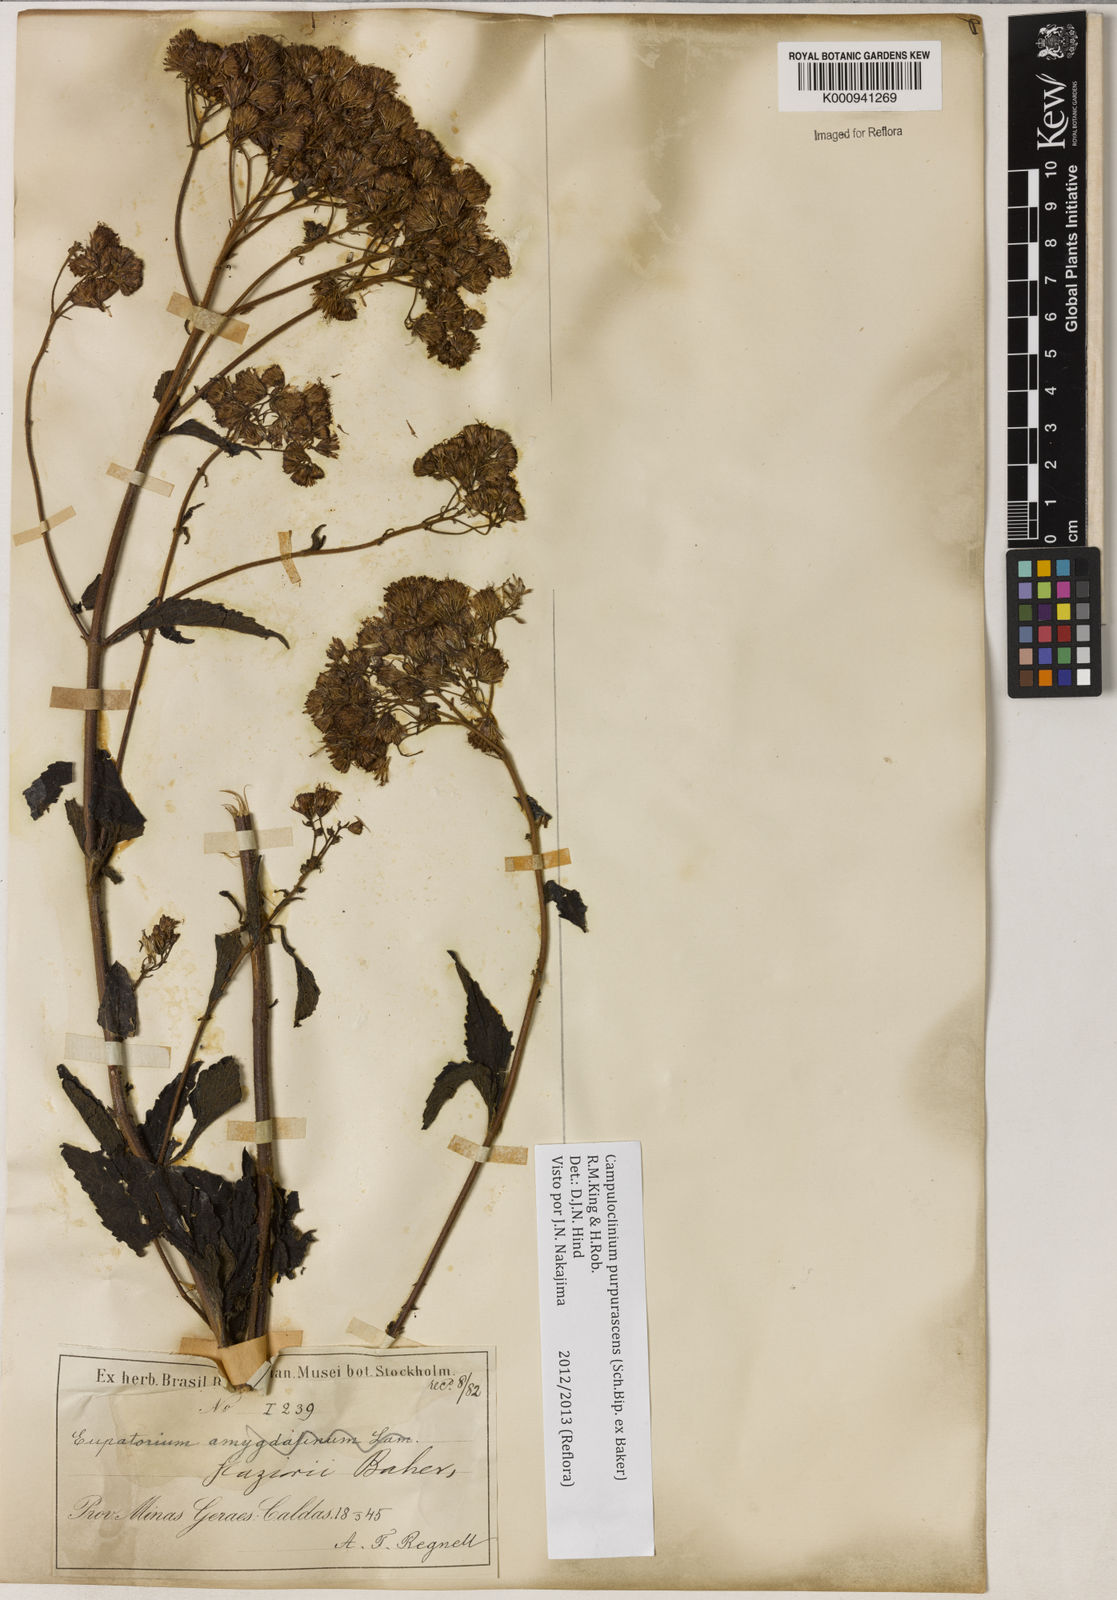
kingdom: Plantae
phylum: Tracheophyta
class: Magnoliopsida
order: Asterales
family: Asteraceae
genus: Campuloclinium
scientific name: Campuloclinium purpurascens
